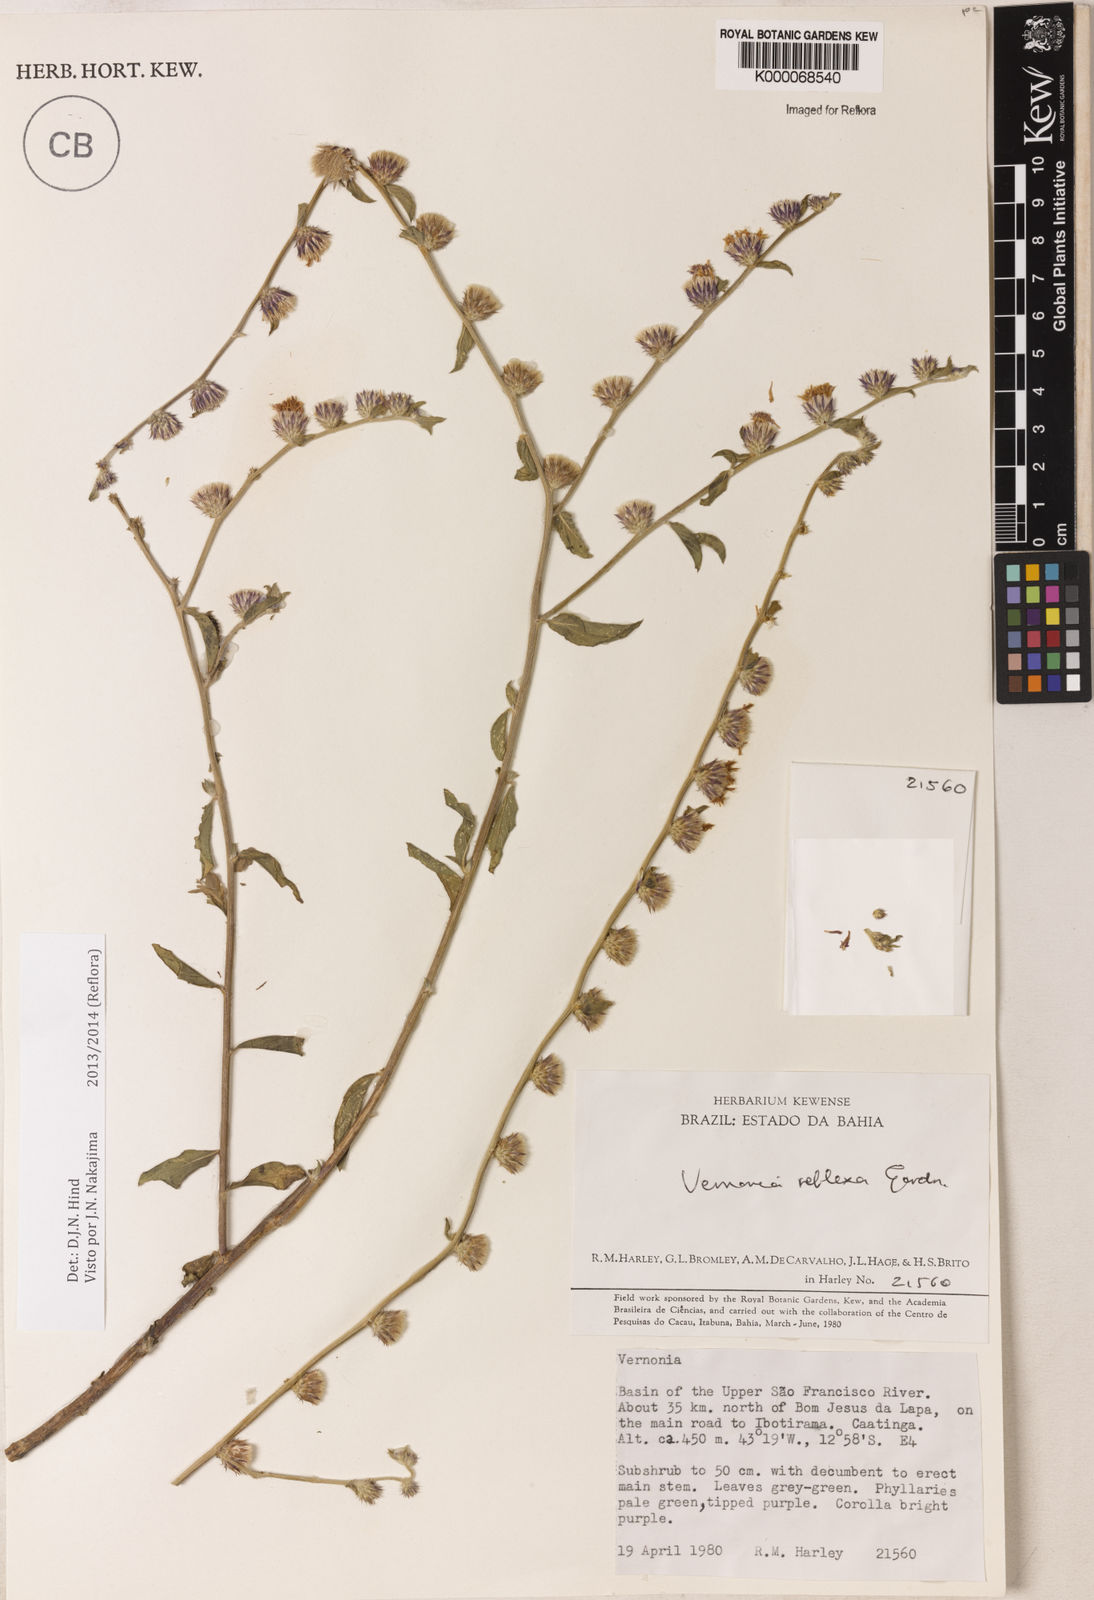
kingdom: Plantae
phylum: Tracheophyta
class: Magnoliopsida
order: Asterales
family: Asteraceae
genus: Lepidaploa
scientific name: Lepidaploa reflexa
